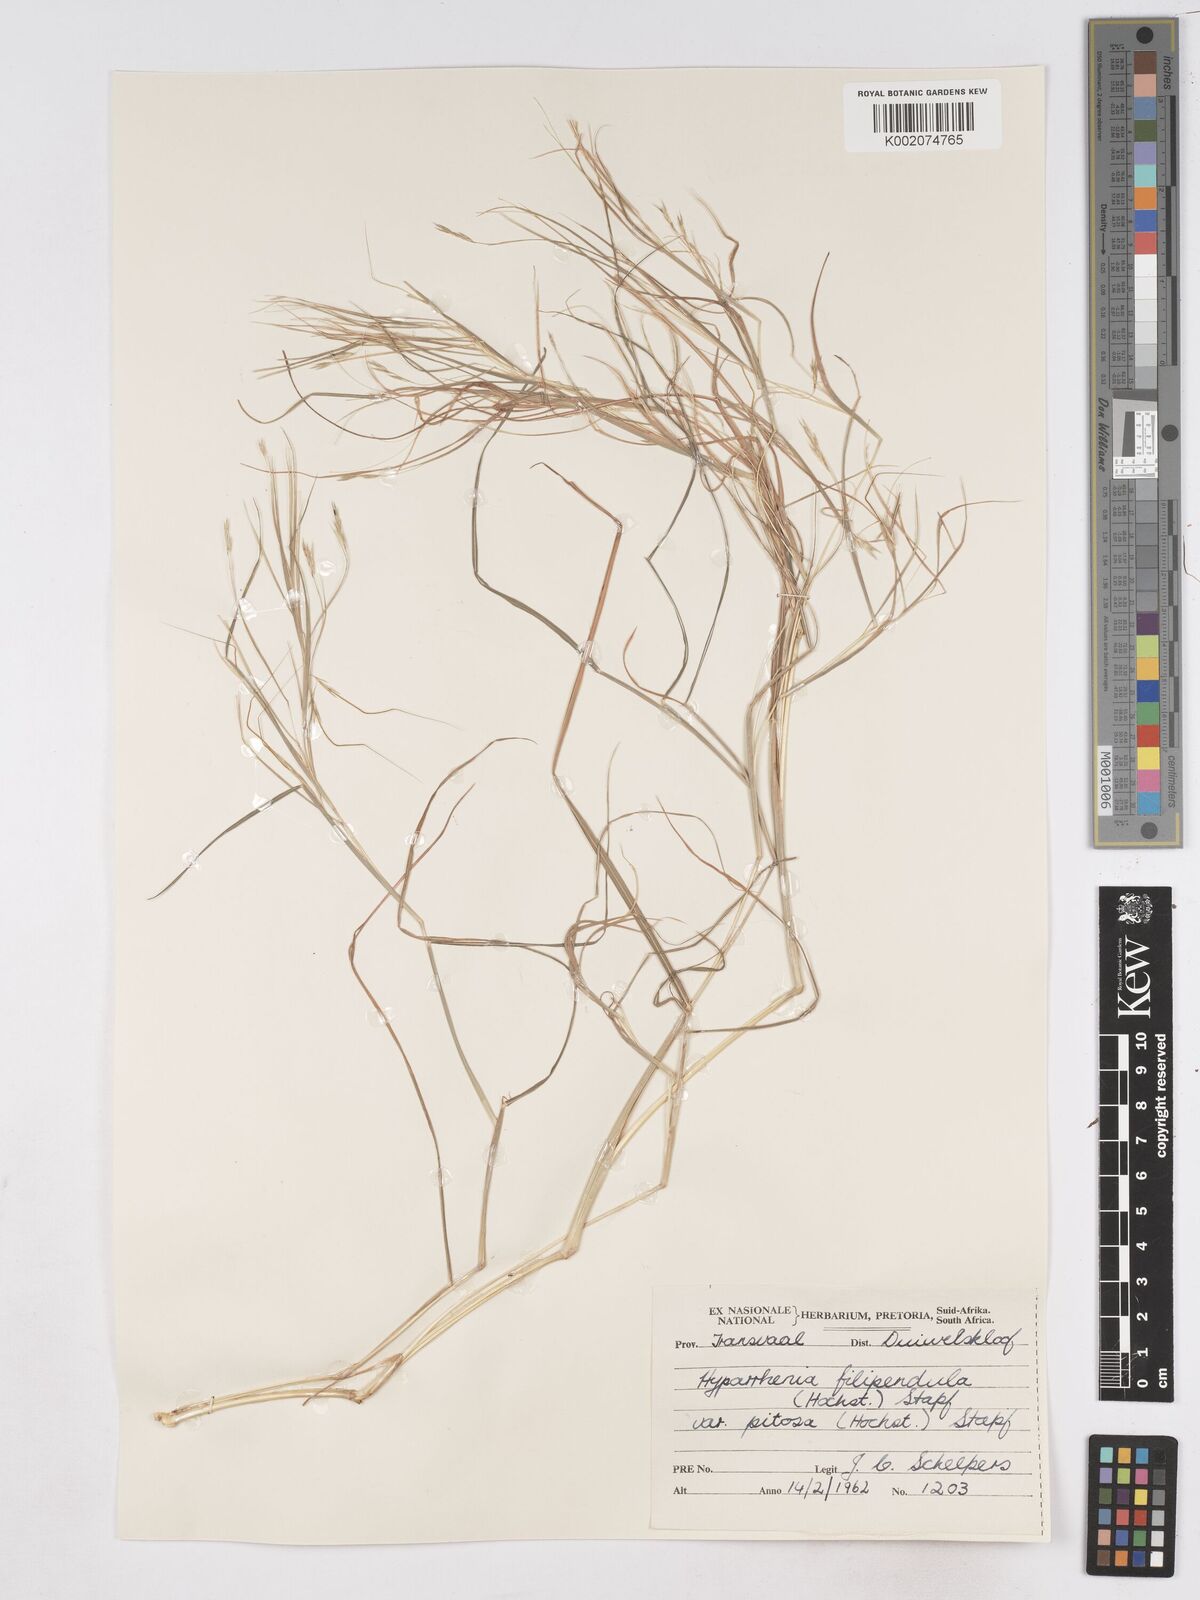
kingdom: Plantae
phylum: Tracheophyta
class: Liliopsida
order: Poales
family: Poaceae
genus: Hyparrhenia
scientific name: Hyparrhenia filipendula
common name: Tambookie grass
